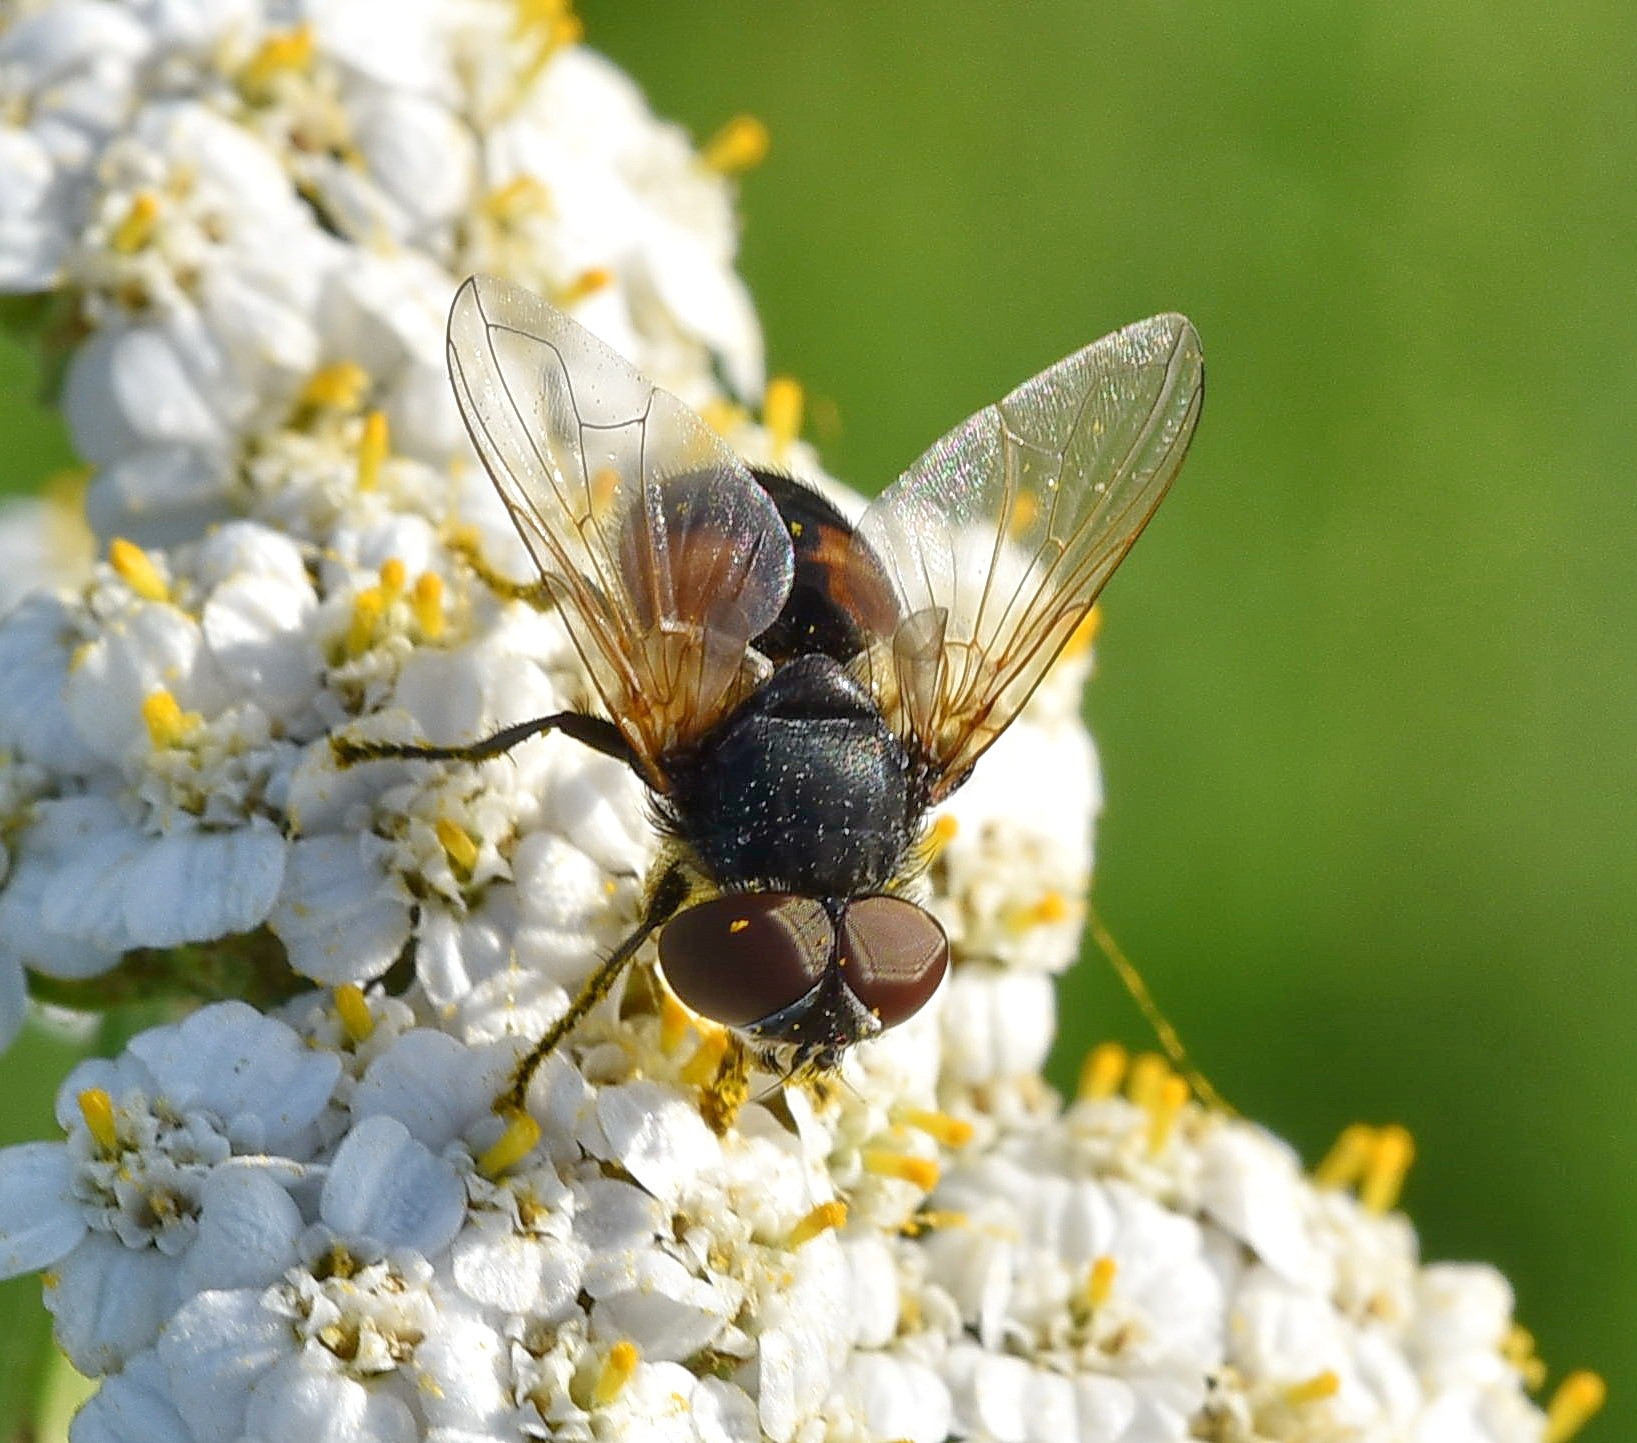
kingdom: Animalia
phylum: Arthropoda
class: Insecta
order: Diptera
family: Tachinidae
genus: Phasia
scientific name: Phasia aurigera
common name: Gylden pragtsnylteflue
